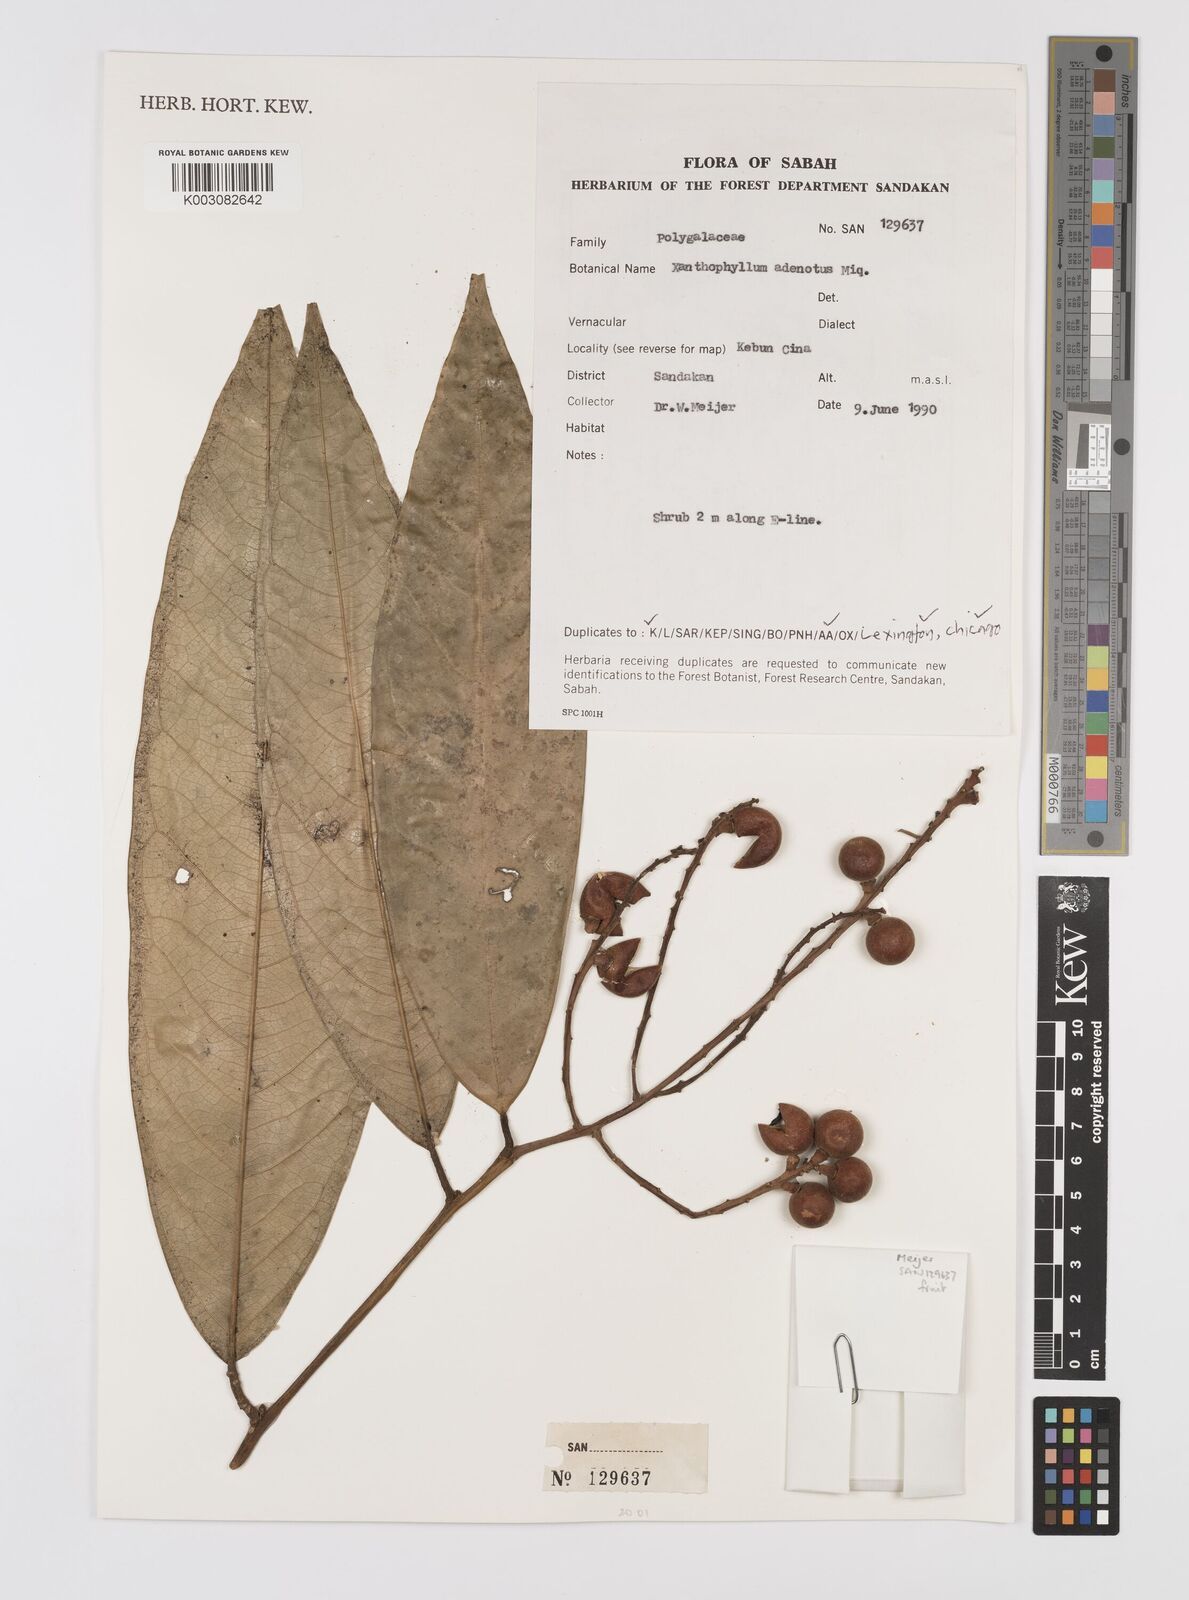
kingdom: Plantae
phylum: Tracheophyta
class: Magnoliopsida
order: Fabales
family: Polygalaceae
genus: Xanthophyllum
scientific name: Xanthophyllum adenotus
